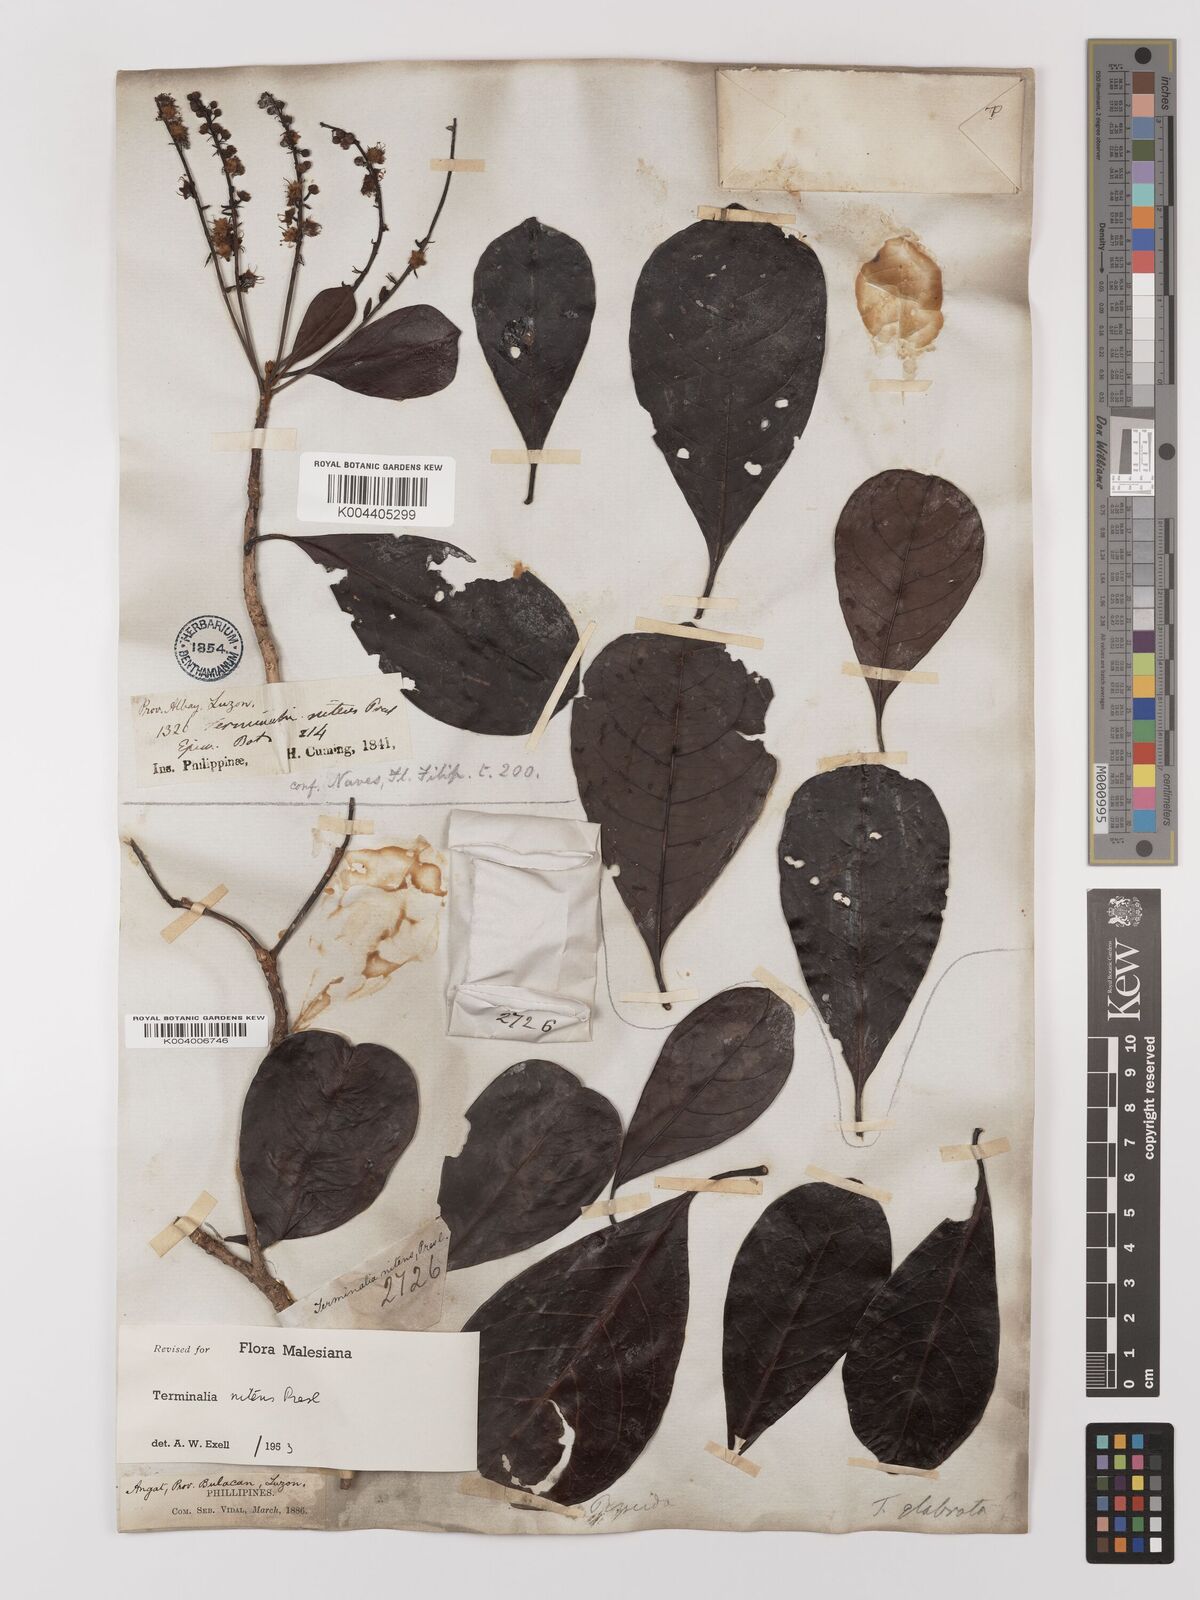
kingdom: Plantae
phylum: Tracheophyta
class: Magnoliopsida
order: Myrtales
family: Combretaceae
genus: Terminalia
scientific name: Terminalia nitens
